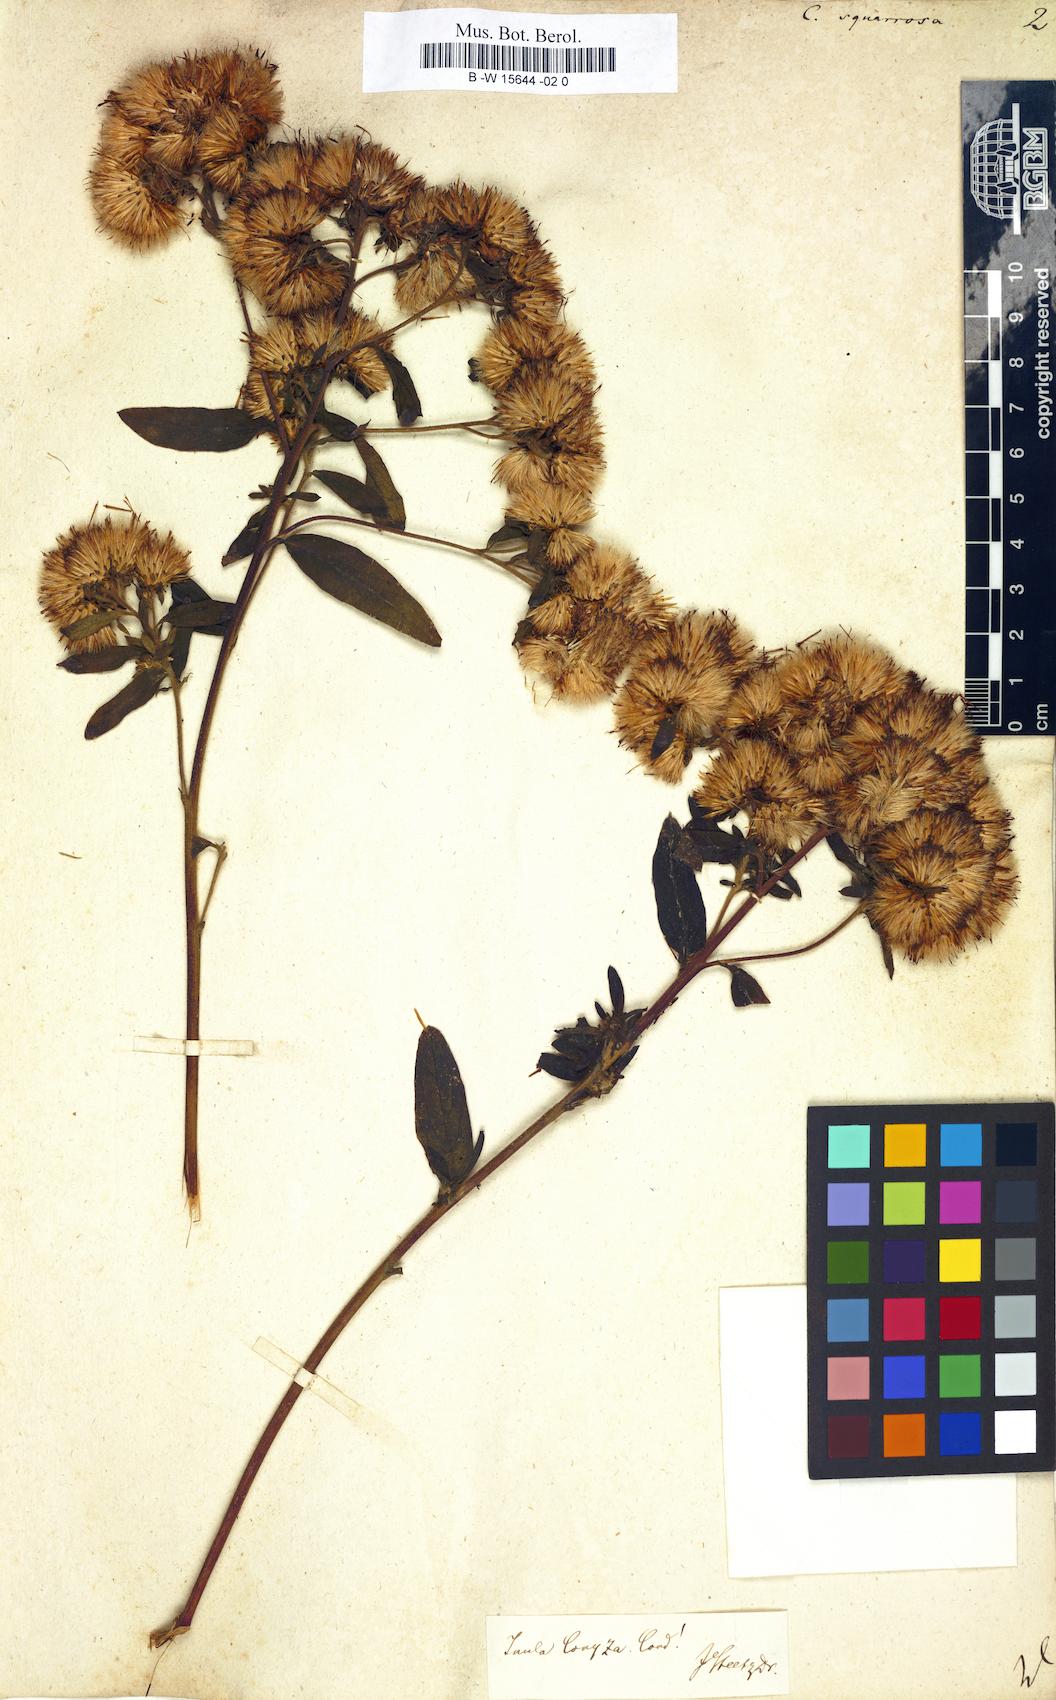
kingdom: Plantae
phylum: Tracheophyta
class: Magnoliopsida
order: Asterales
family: Asteraceae
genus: Conyza
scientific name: Conyza squarrosa
